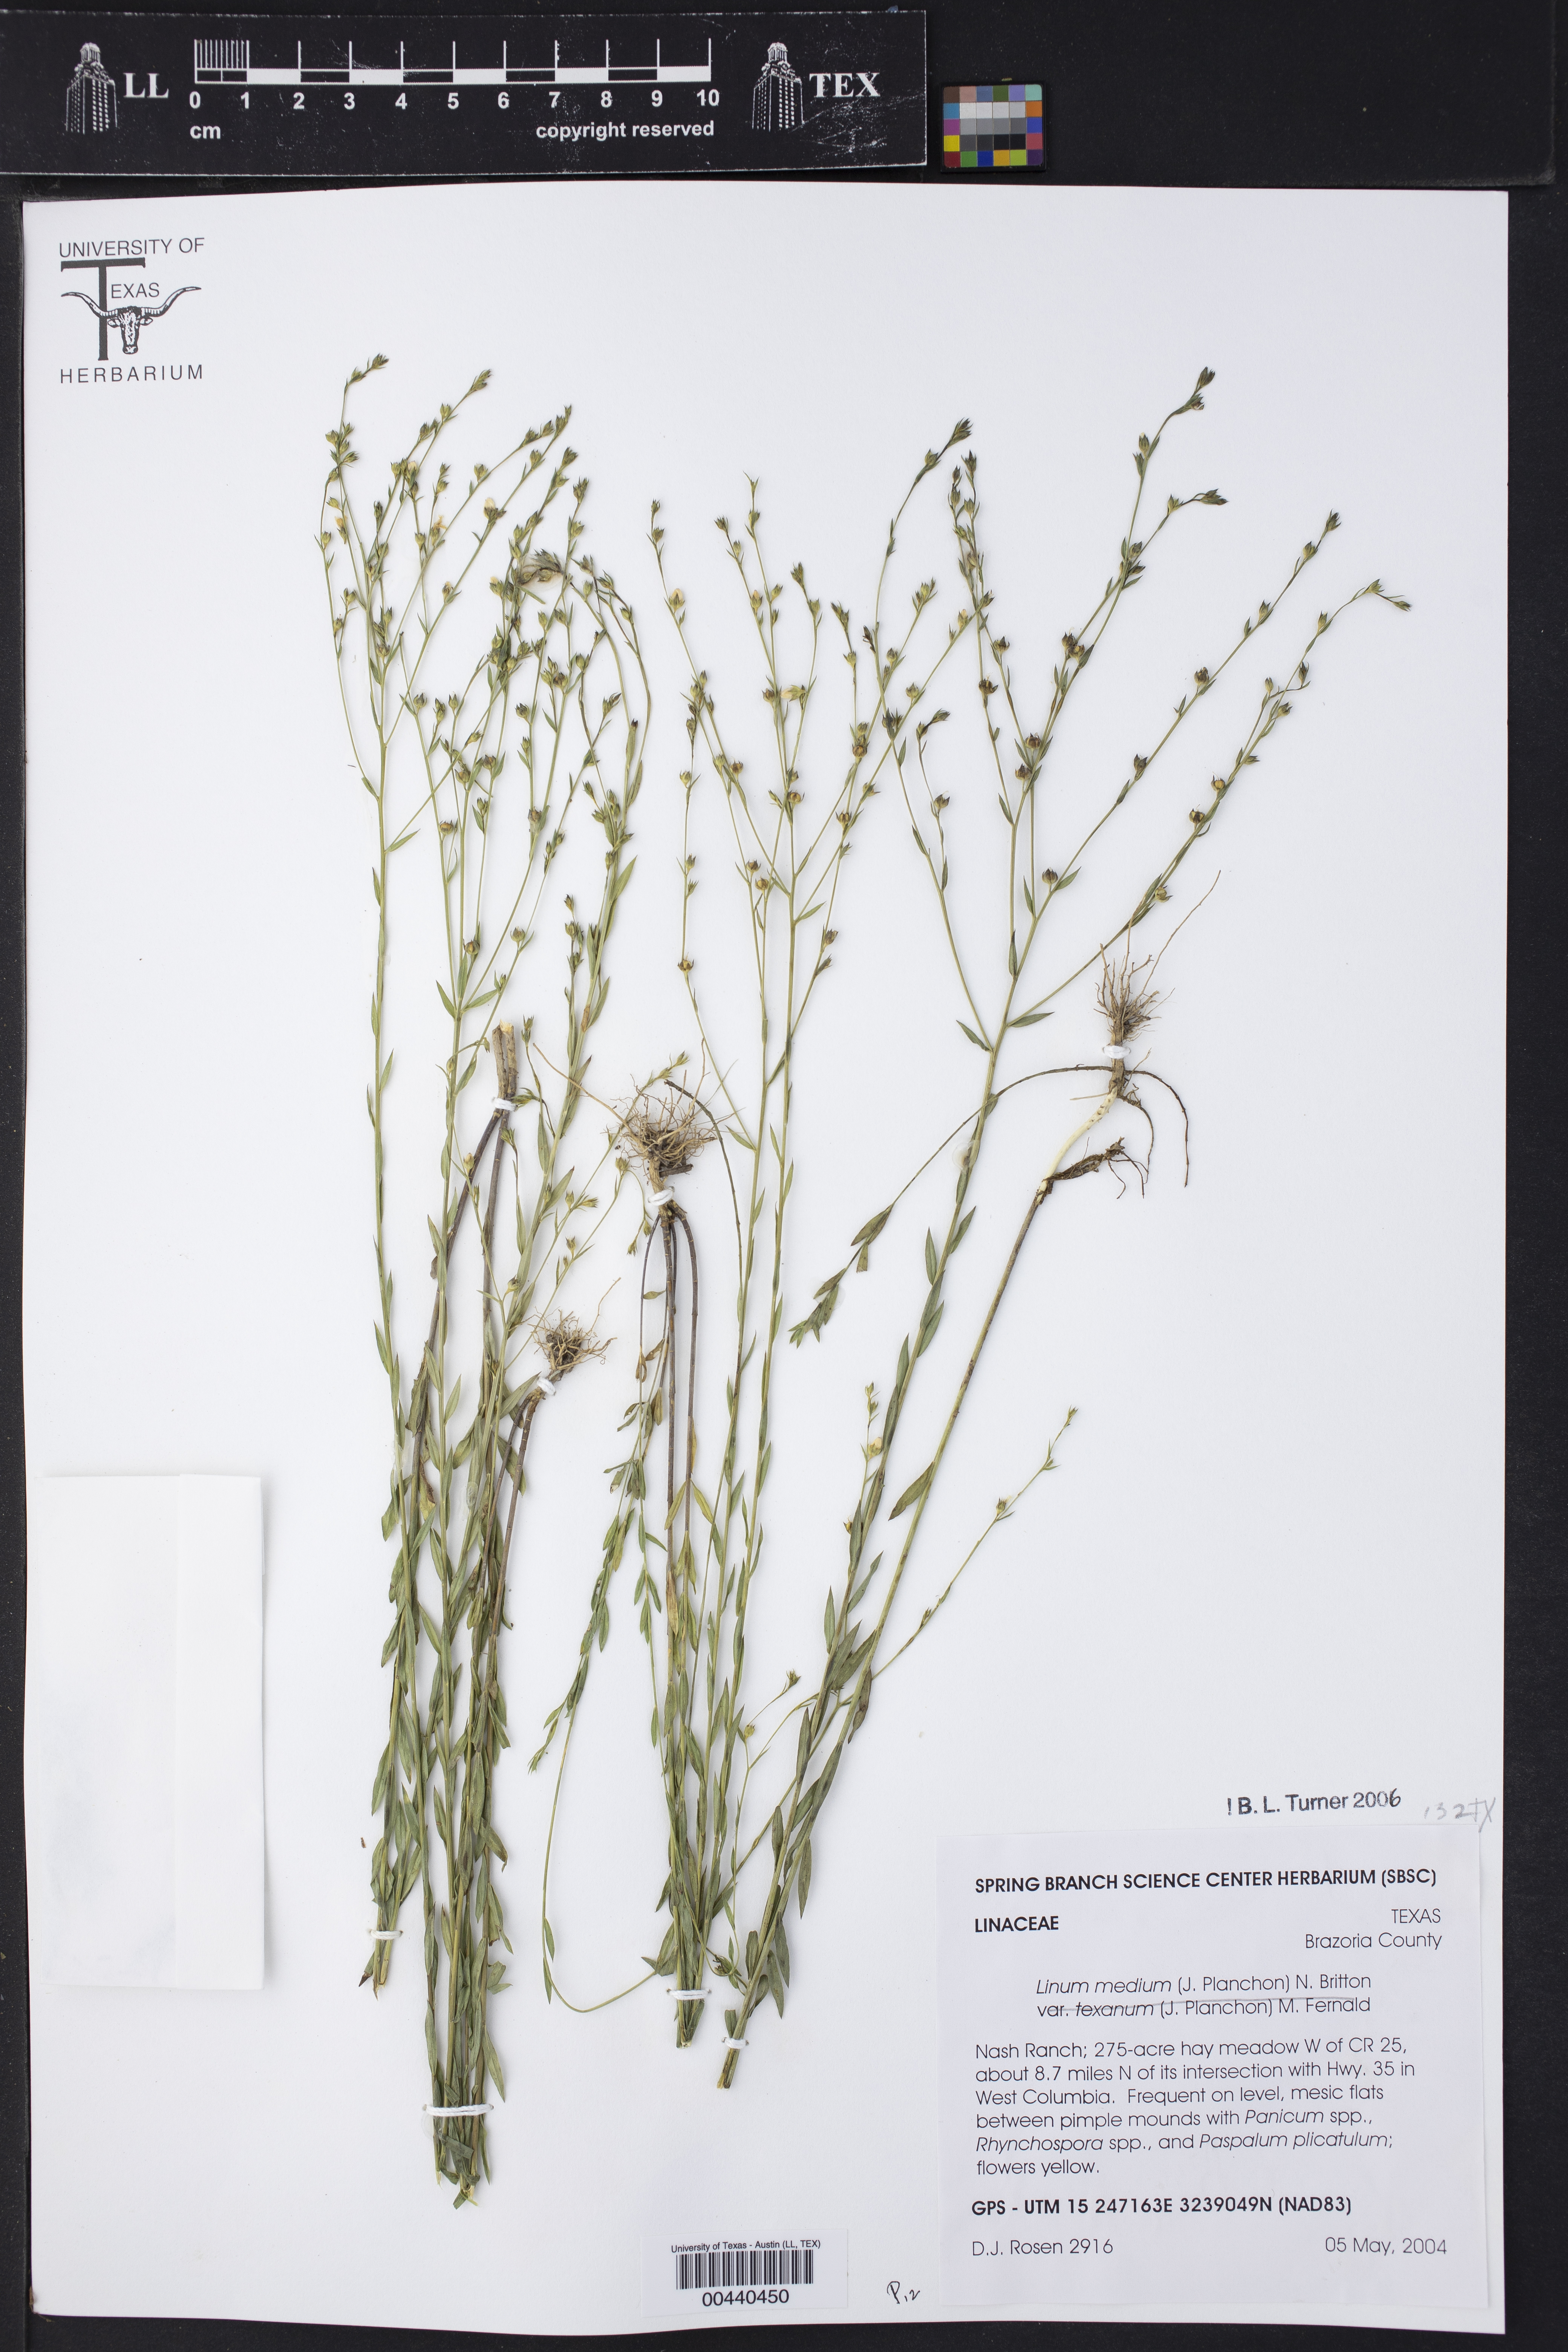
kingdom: Plantae
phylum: Tracheophyta
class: Magnoliopsida
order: Malpighiales
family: Linaceae
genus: Linum
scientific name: Linum medium
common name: Stiff yellow flax
